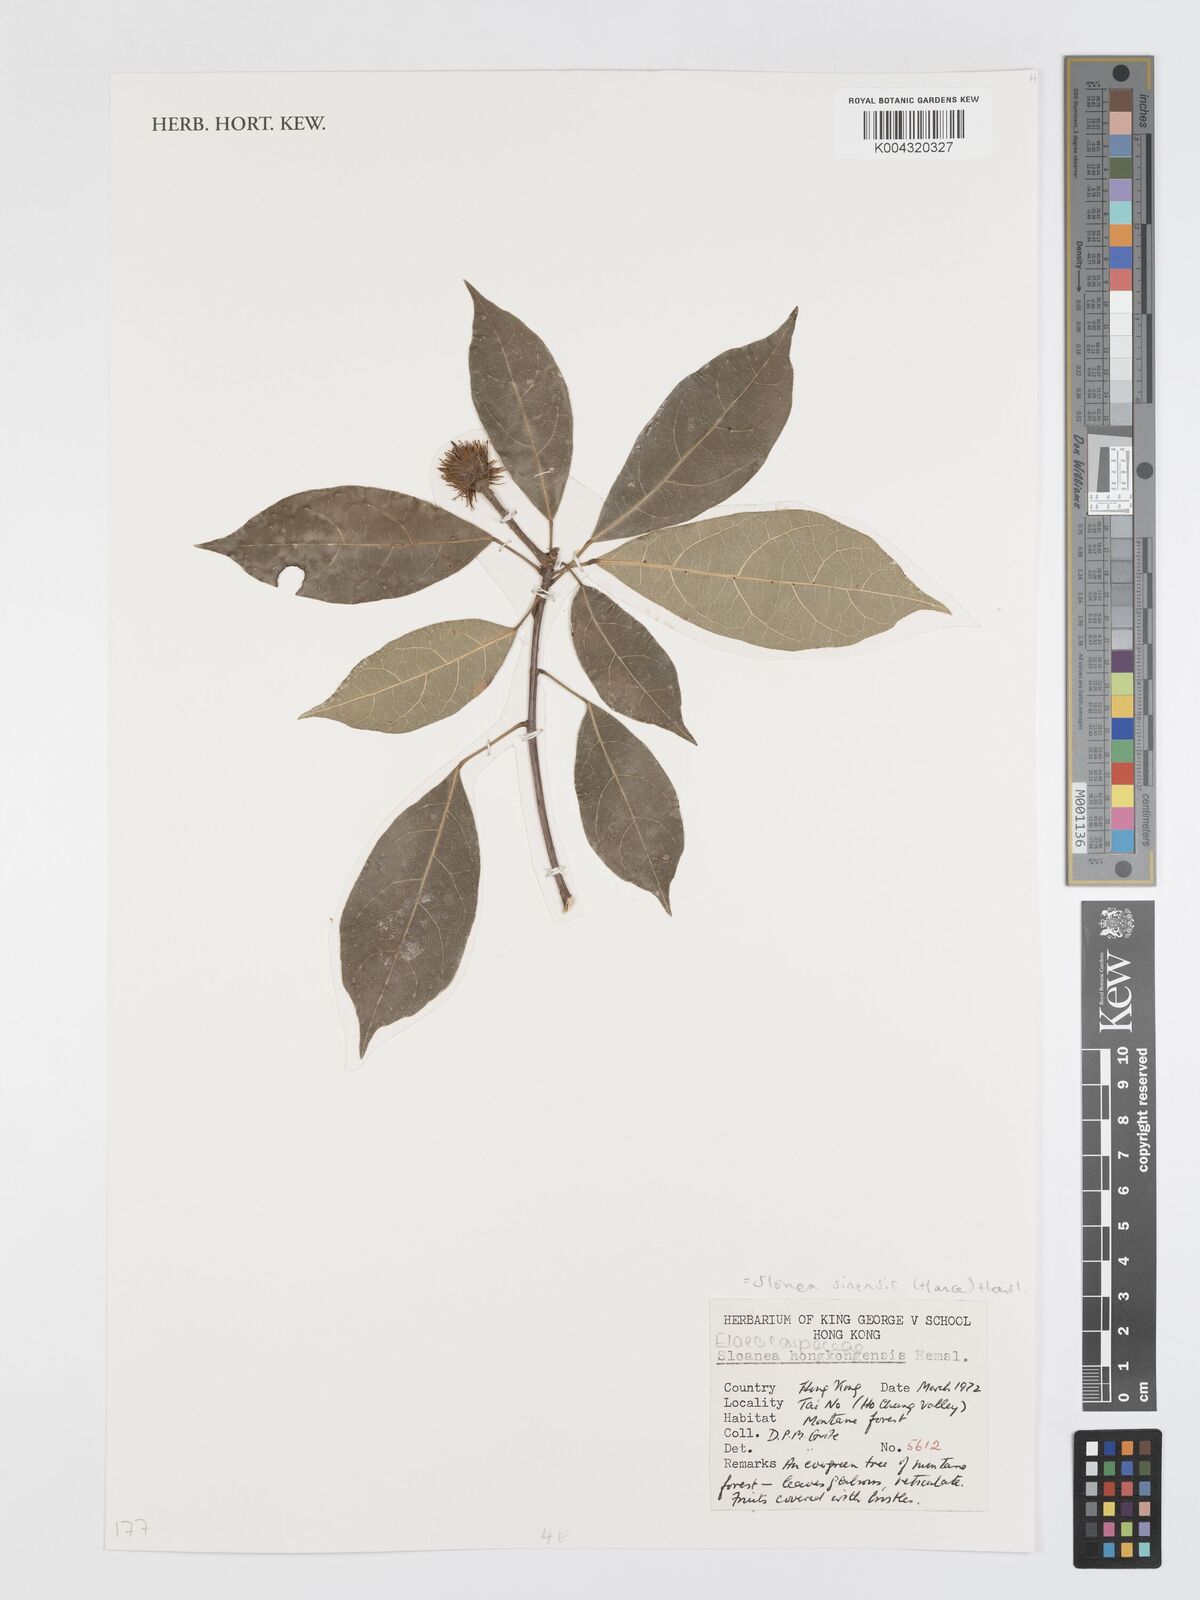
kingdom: Plantae
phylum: Tracheophyta
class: Magnoliopsida
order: Oxalidales
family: Elaeocarpaceae
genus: Sloanea
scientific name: Sloanea sinensis
